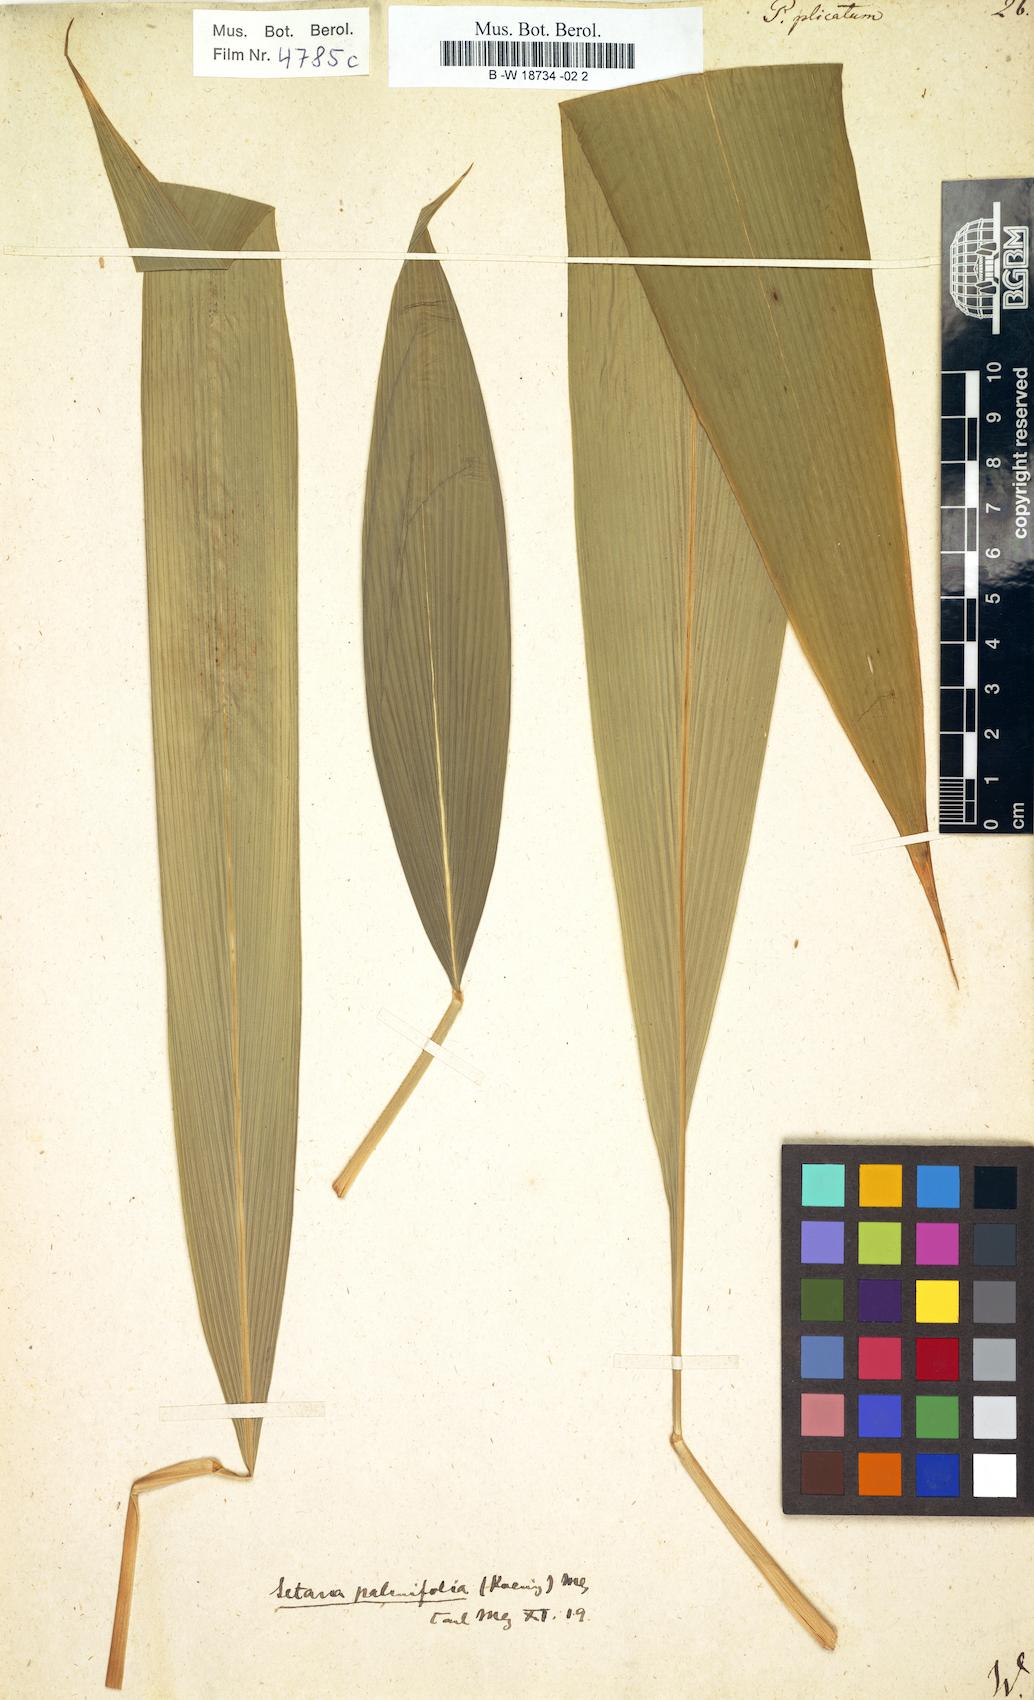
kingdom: Plantae
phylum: Tracheophyta
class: Liliopsida
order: Poales
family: Poaceae
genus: Setaria
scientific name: Setaria plicata
